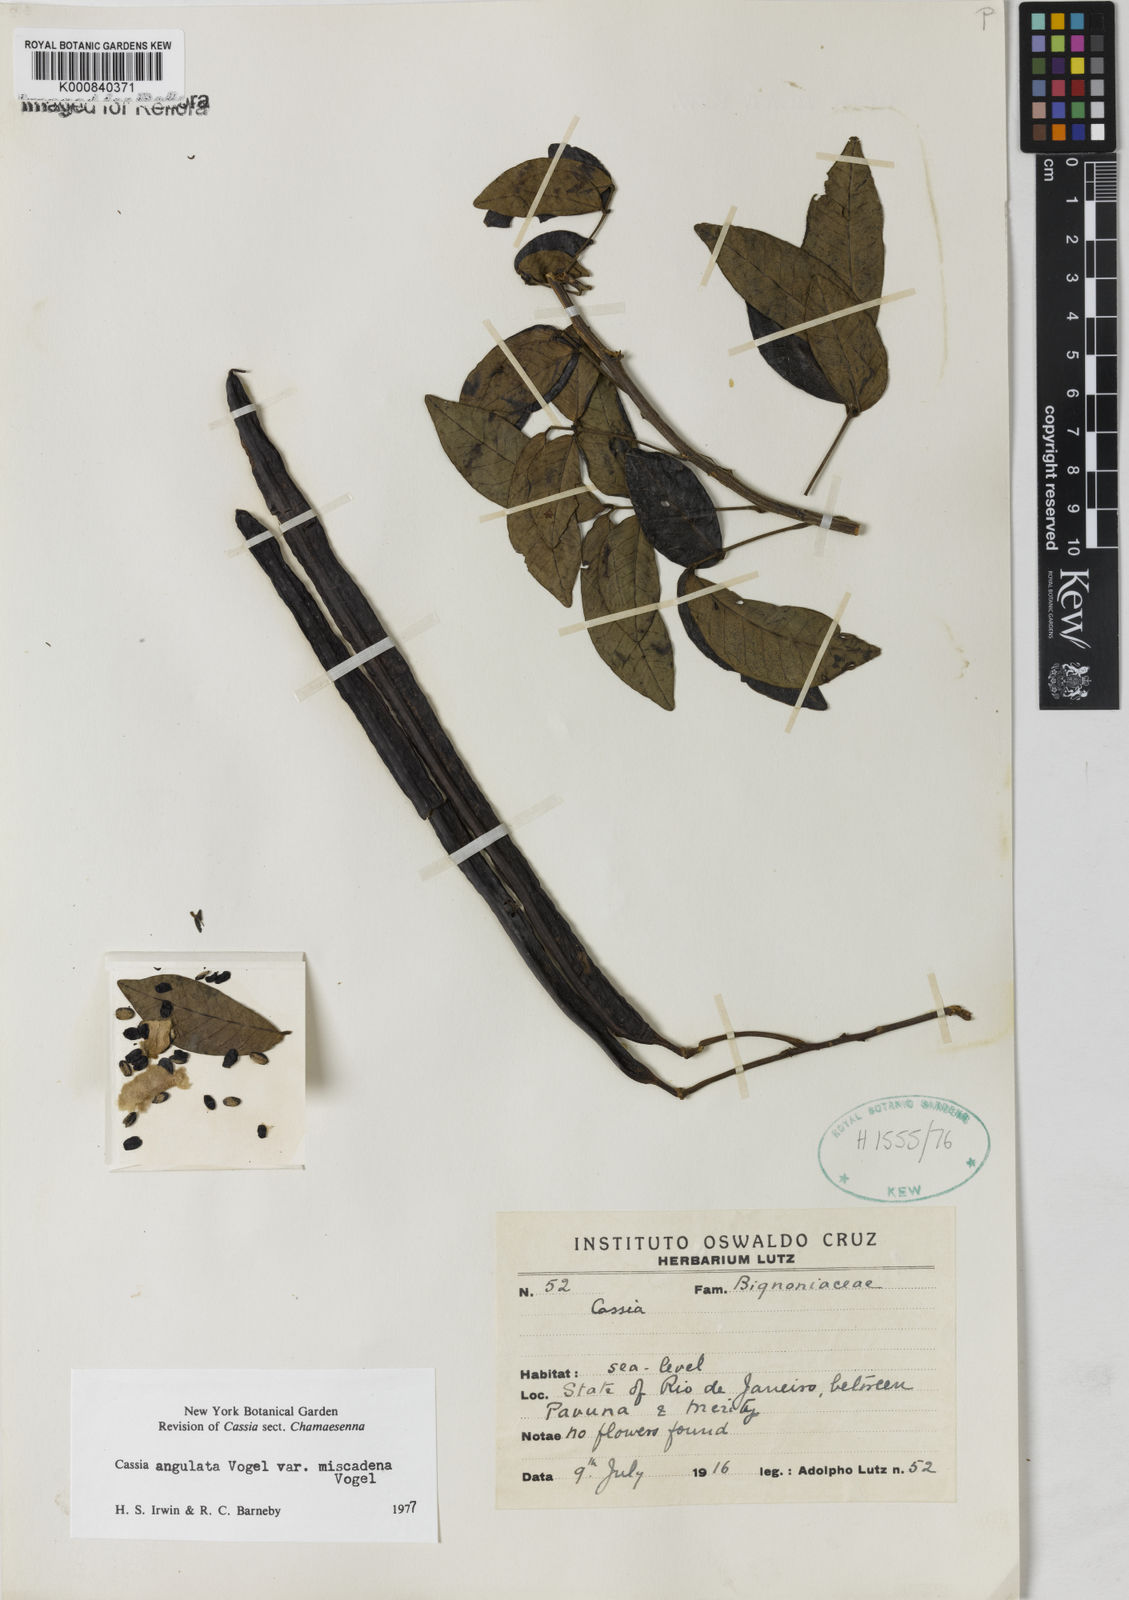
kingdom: Plantae
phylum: Tracheophyta
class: Magnoliopsida
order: Fabales
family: Fabaceae
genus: Senna
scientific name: Senna angulata
